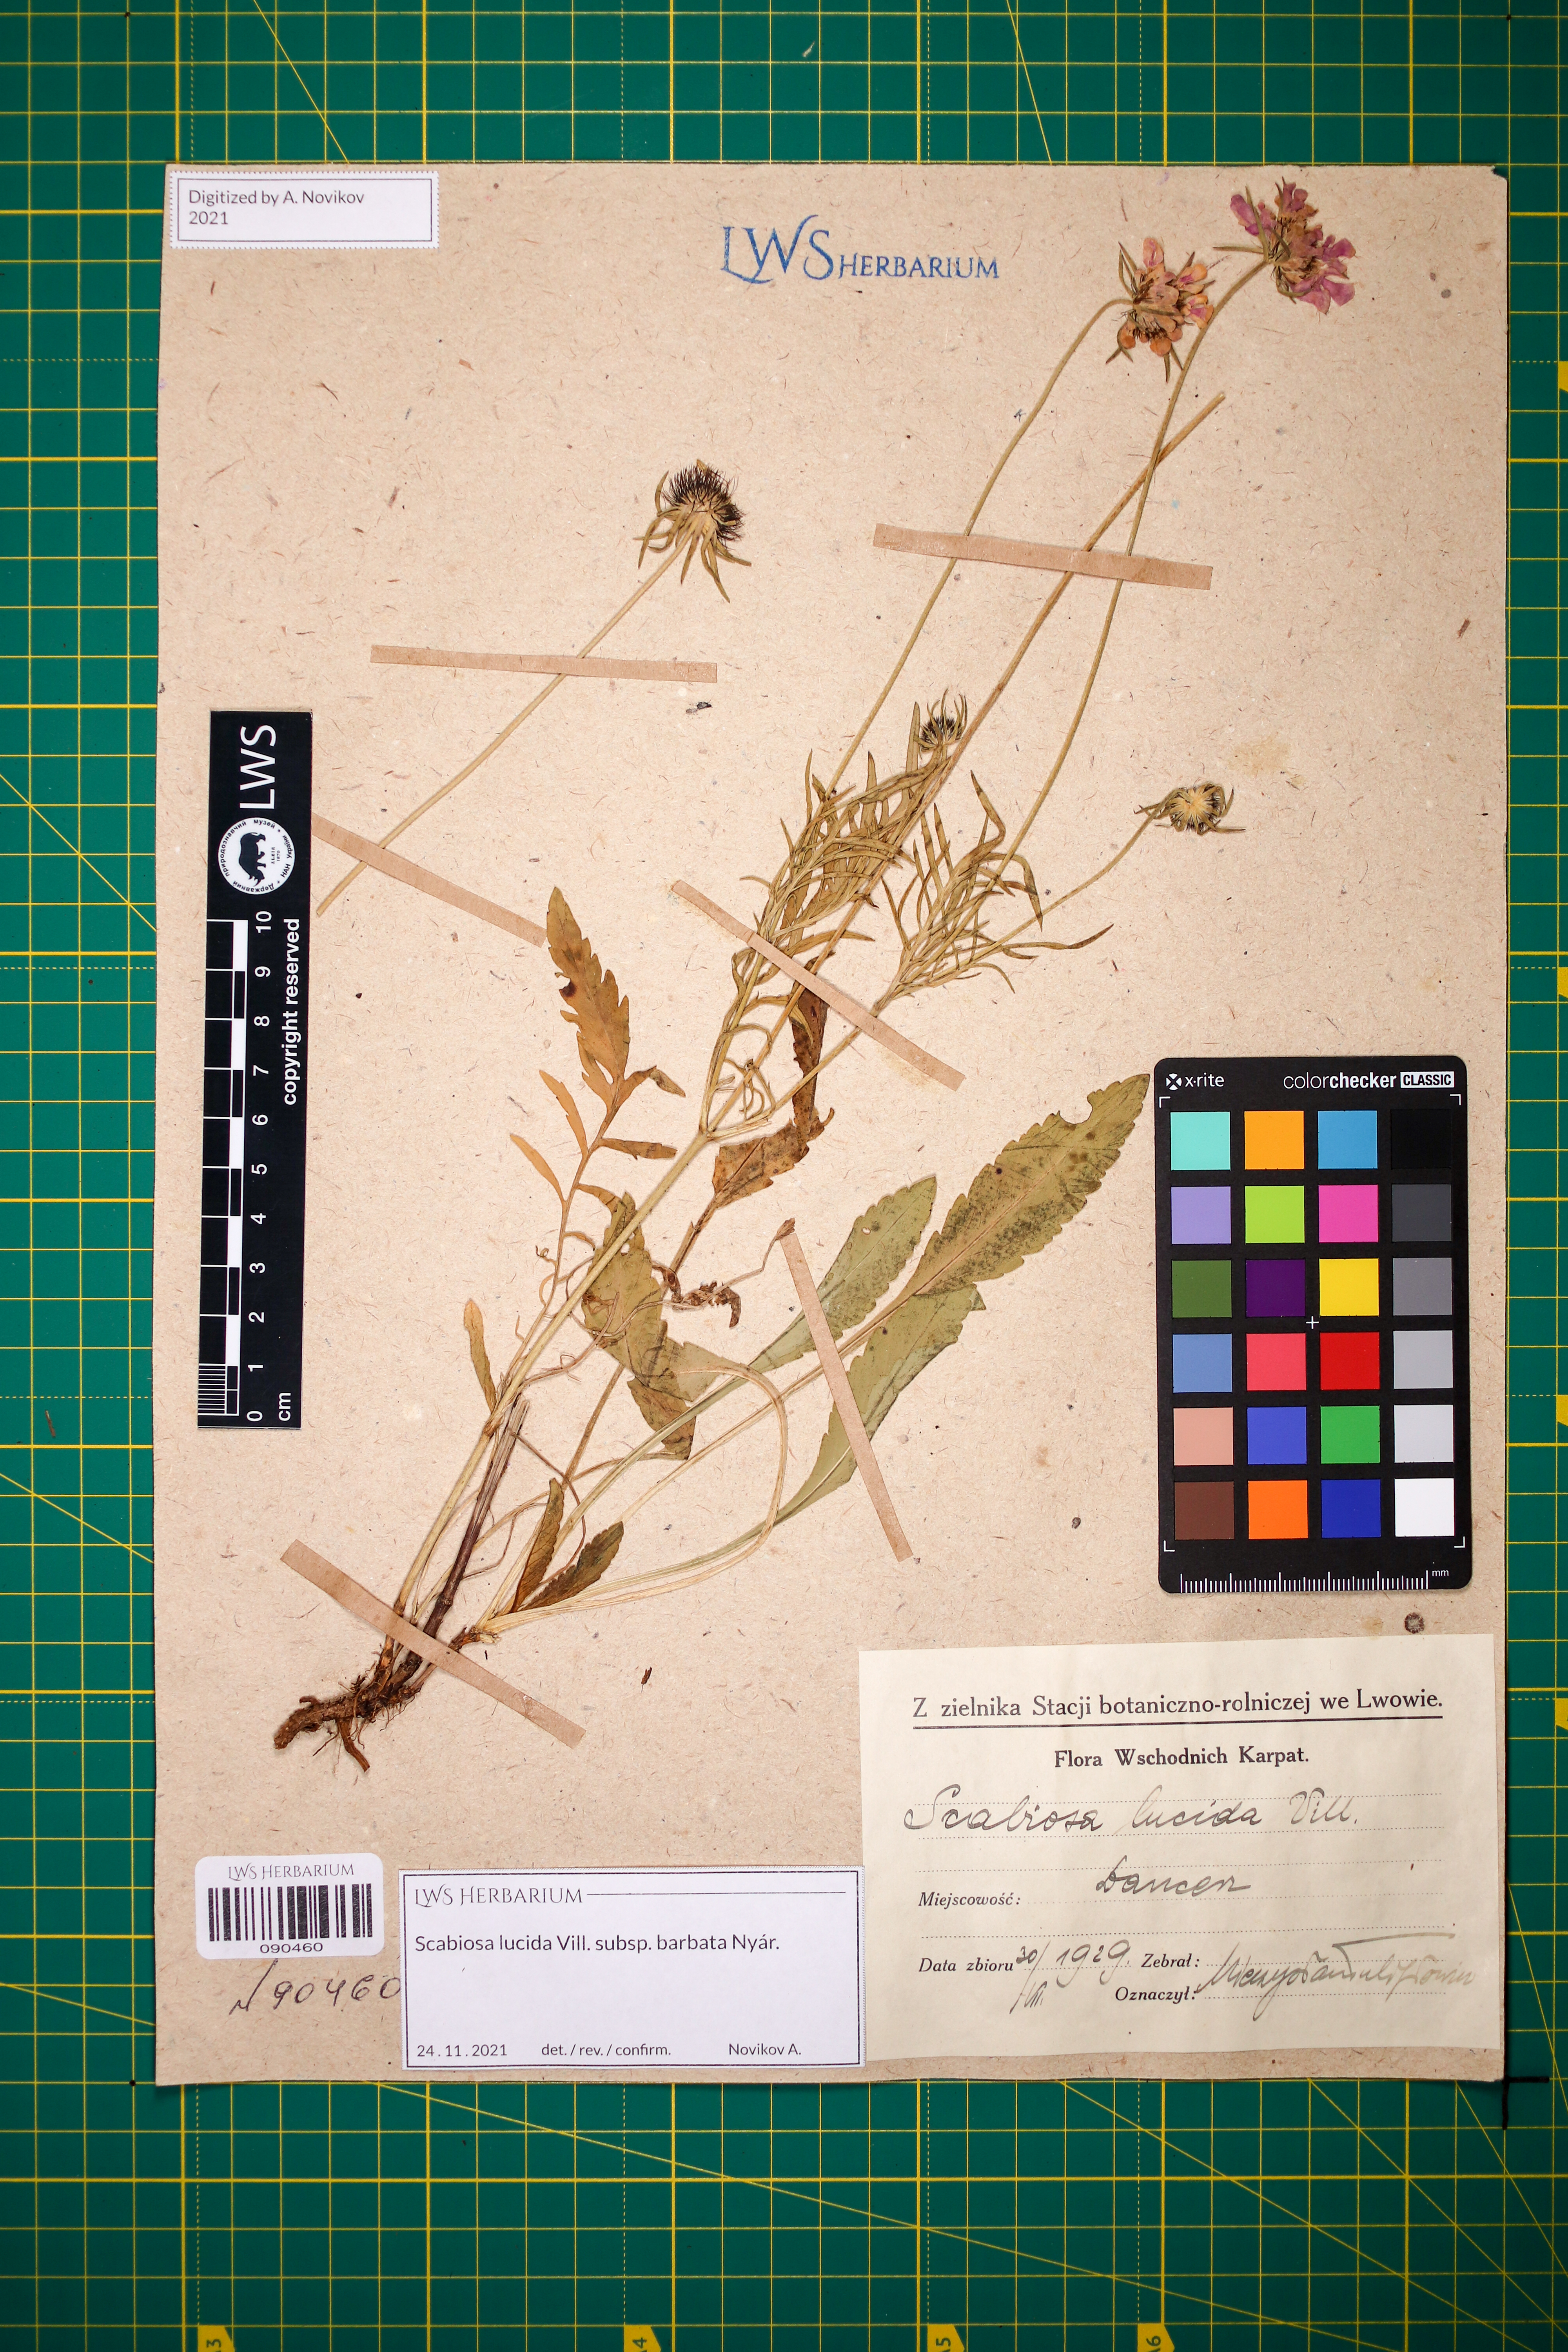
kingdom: Plantae
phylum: Tracheophyta
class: Magnoliopsida
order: Dipsacales
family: Caprifoliaceae
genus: Scabiosa
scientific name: Scabiosa lucida
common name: Shining scabious
